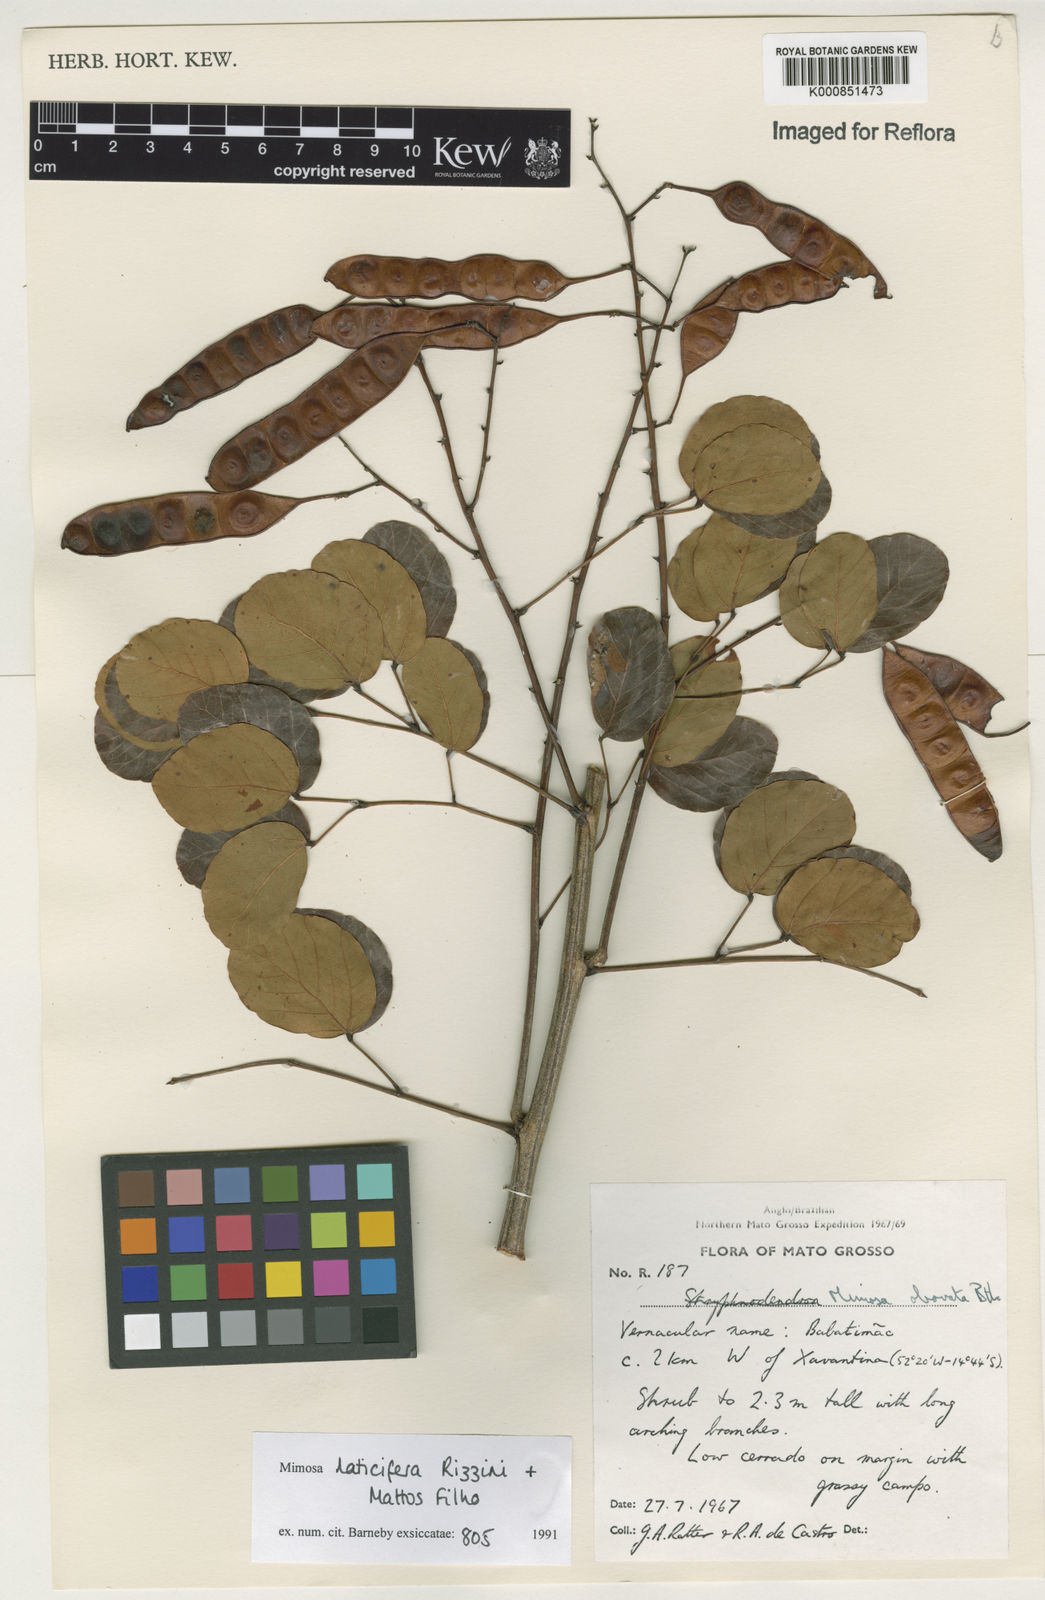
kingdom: Plantae
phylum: Tracheophyta
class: Magnoliopsida
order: Fabales
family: Fabaceae
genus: Mimosa
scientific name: Mimosa laticifera
